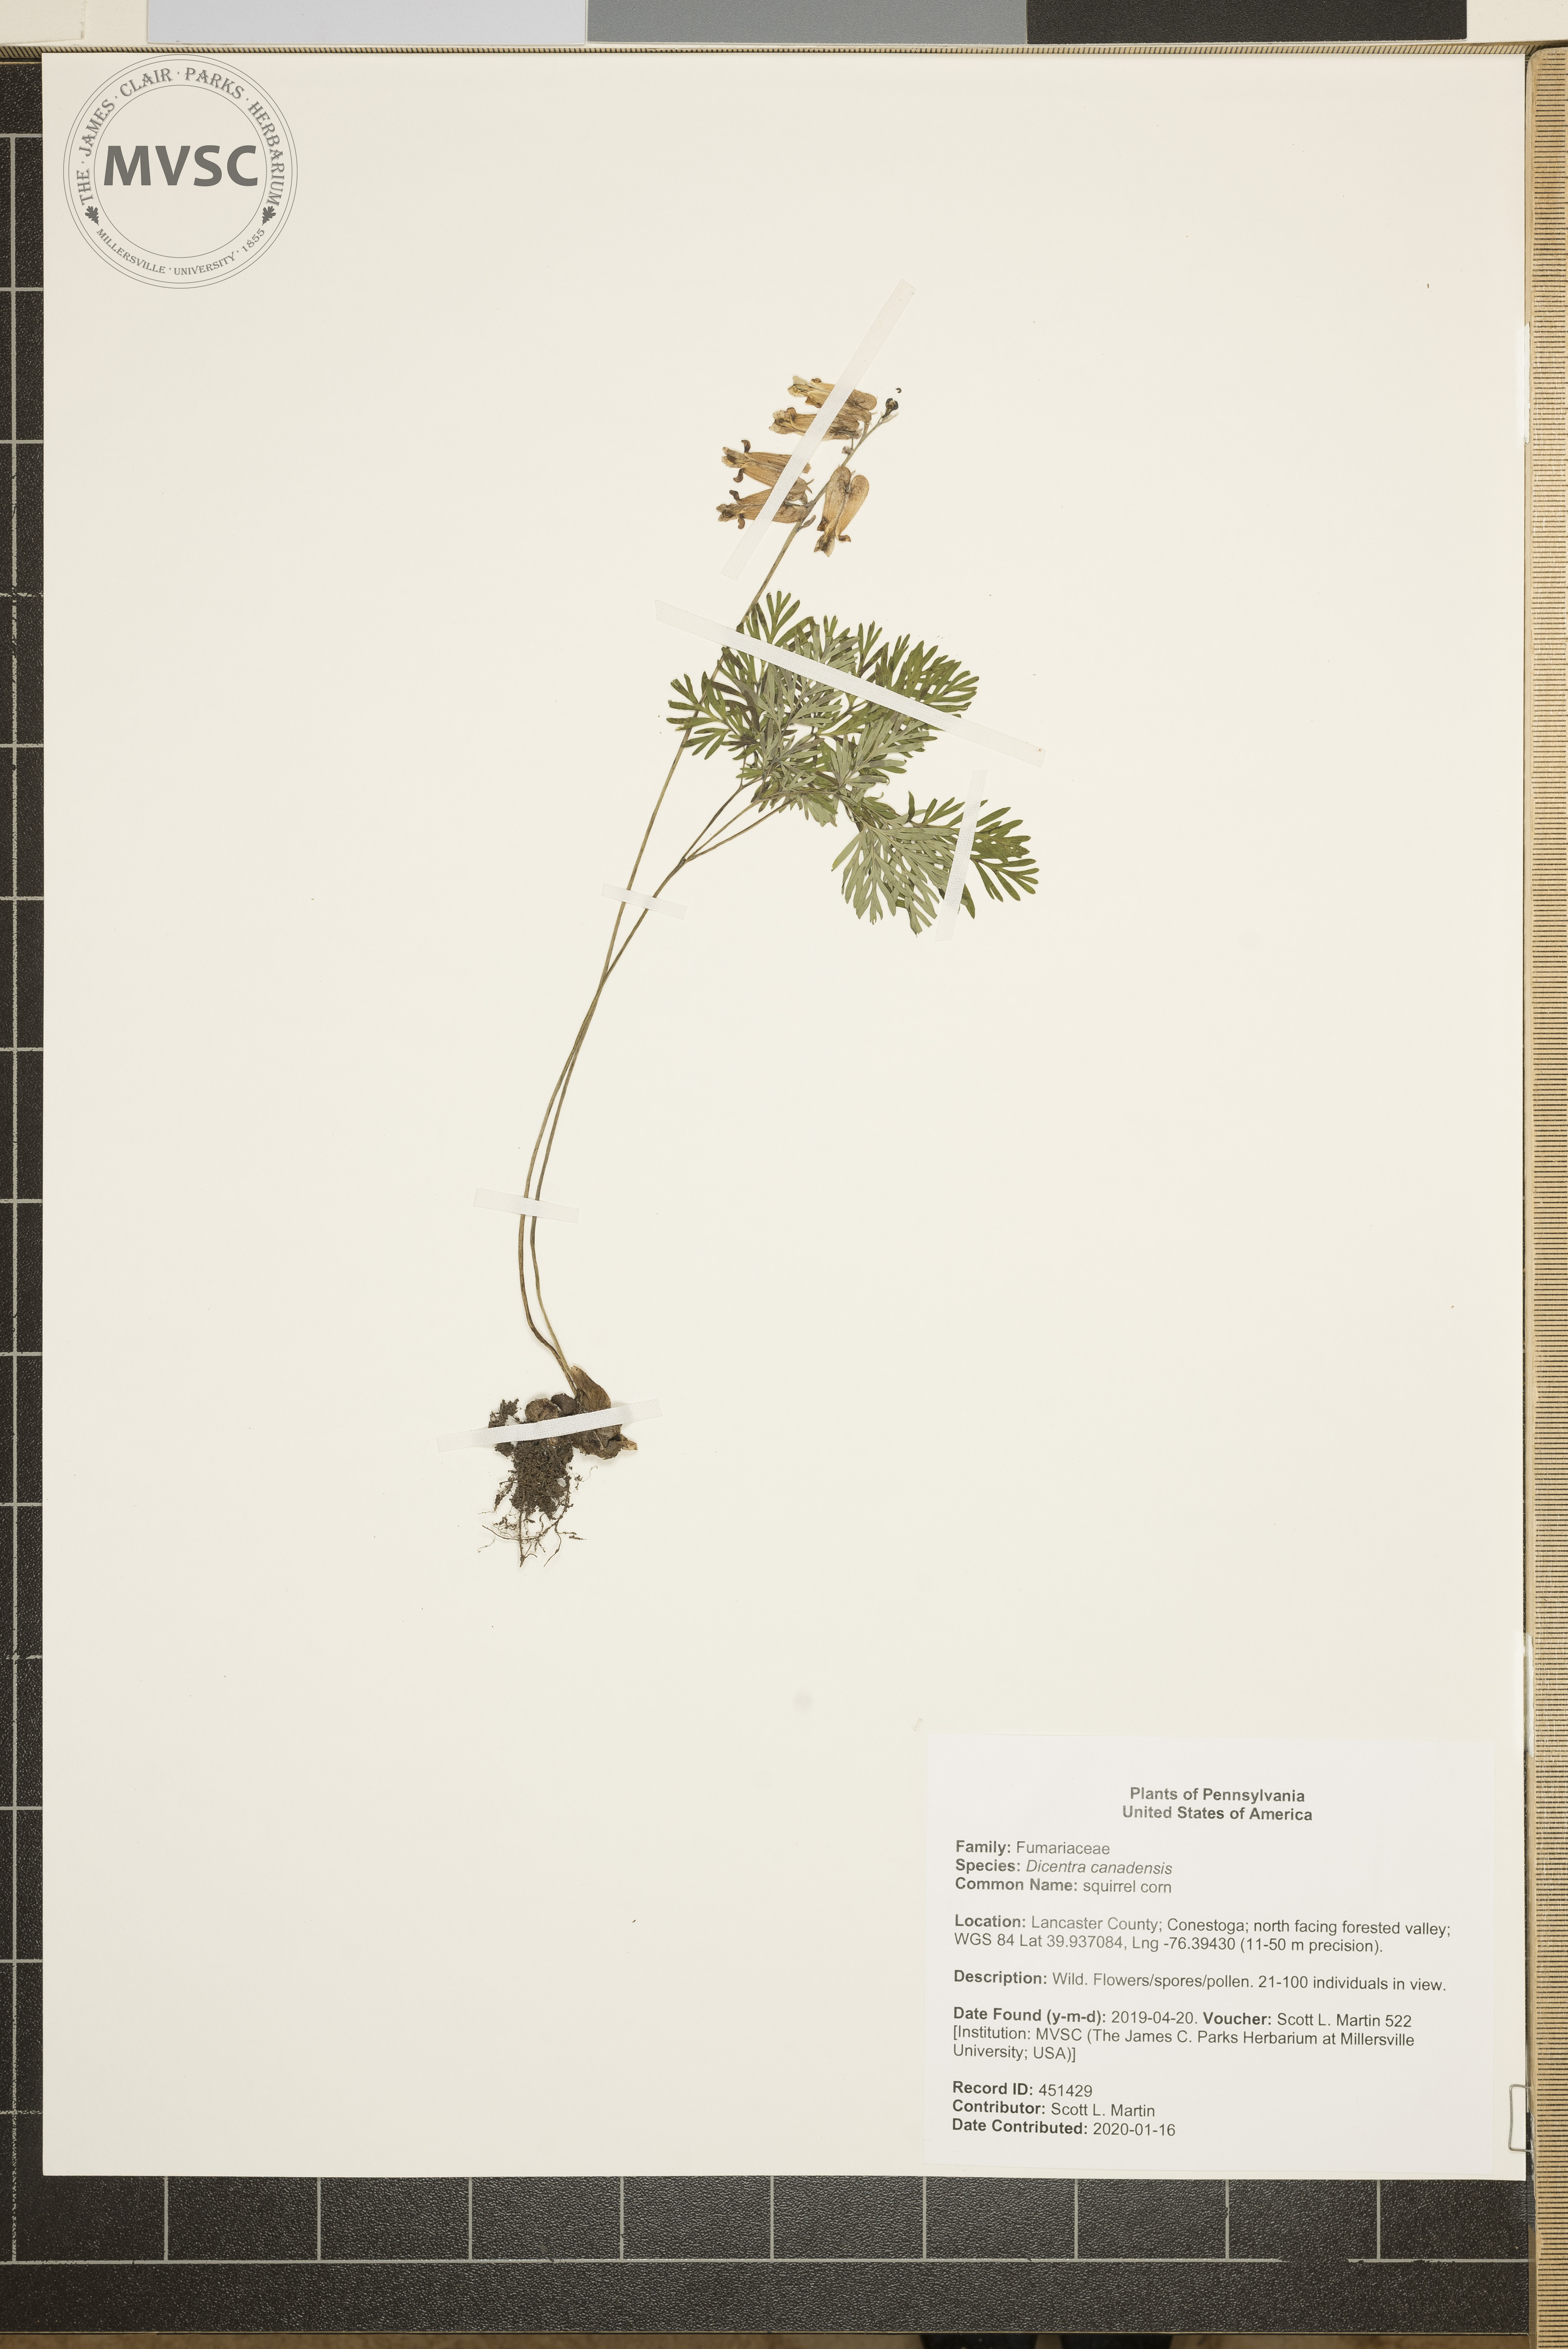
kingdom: Plantae
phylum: Tracheophyta
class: Magnoliopsida
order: Ranunculales
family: Papaveraceae
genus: Dicentra
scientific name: Dicentra canadensis
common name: squirrel corn
